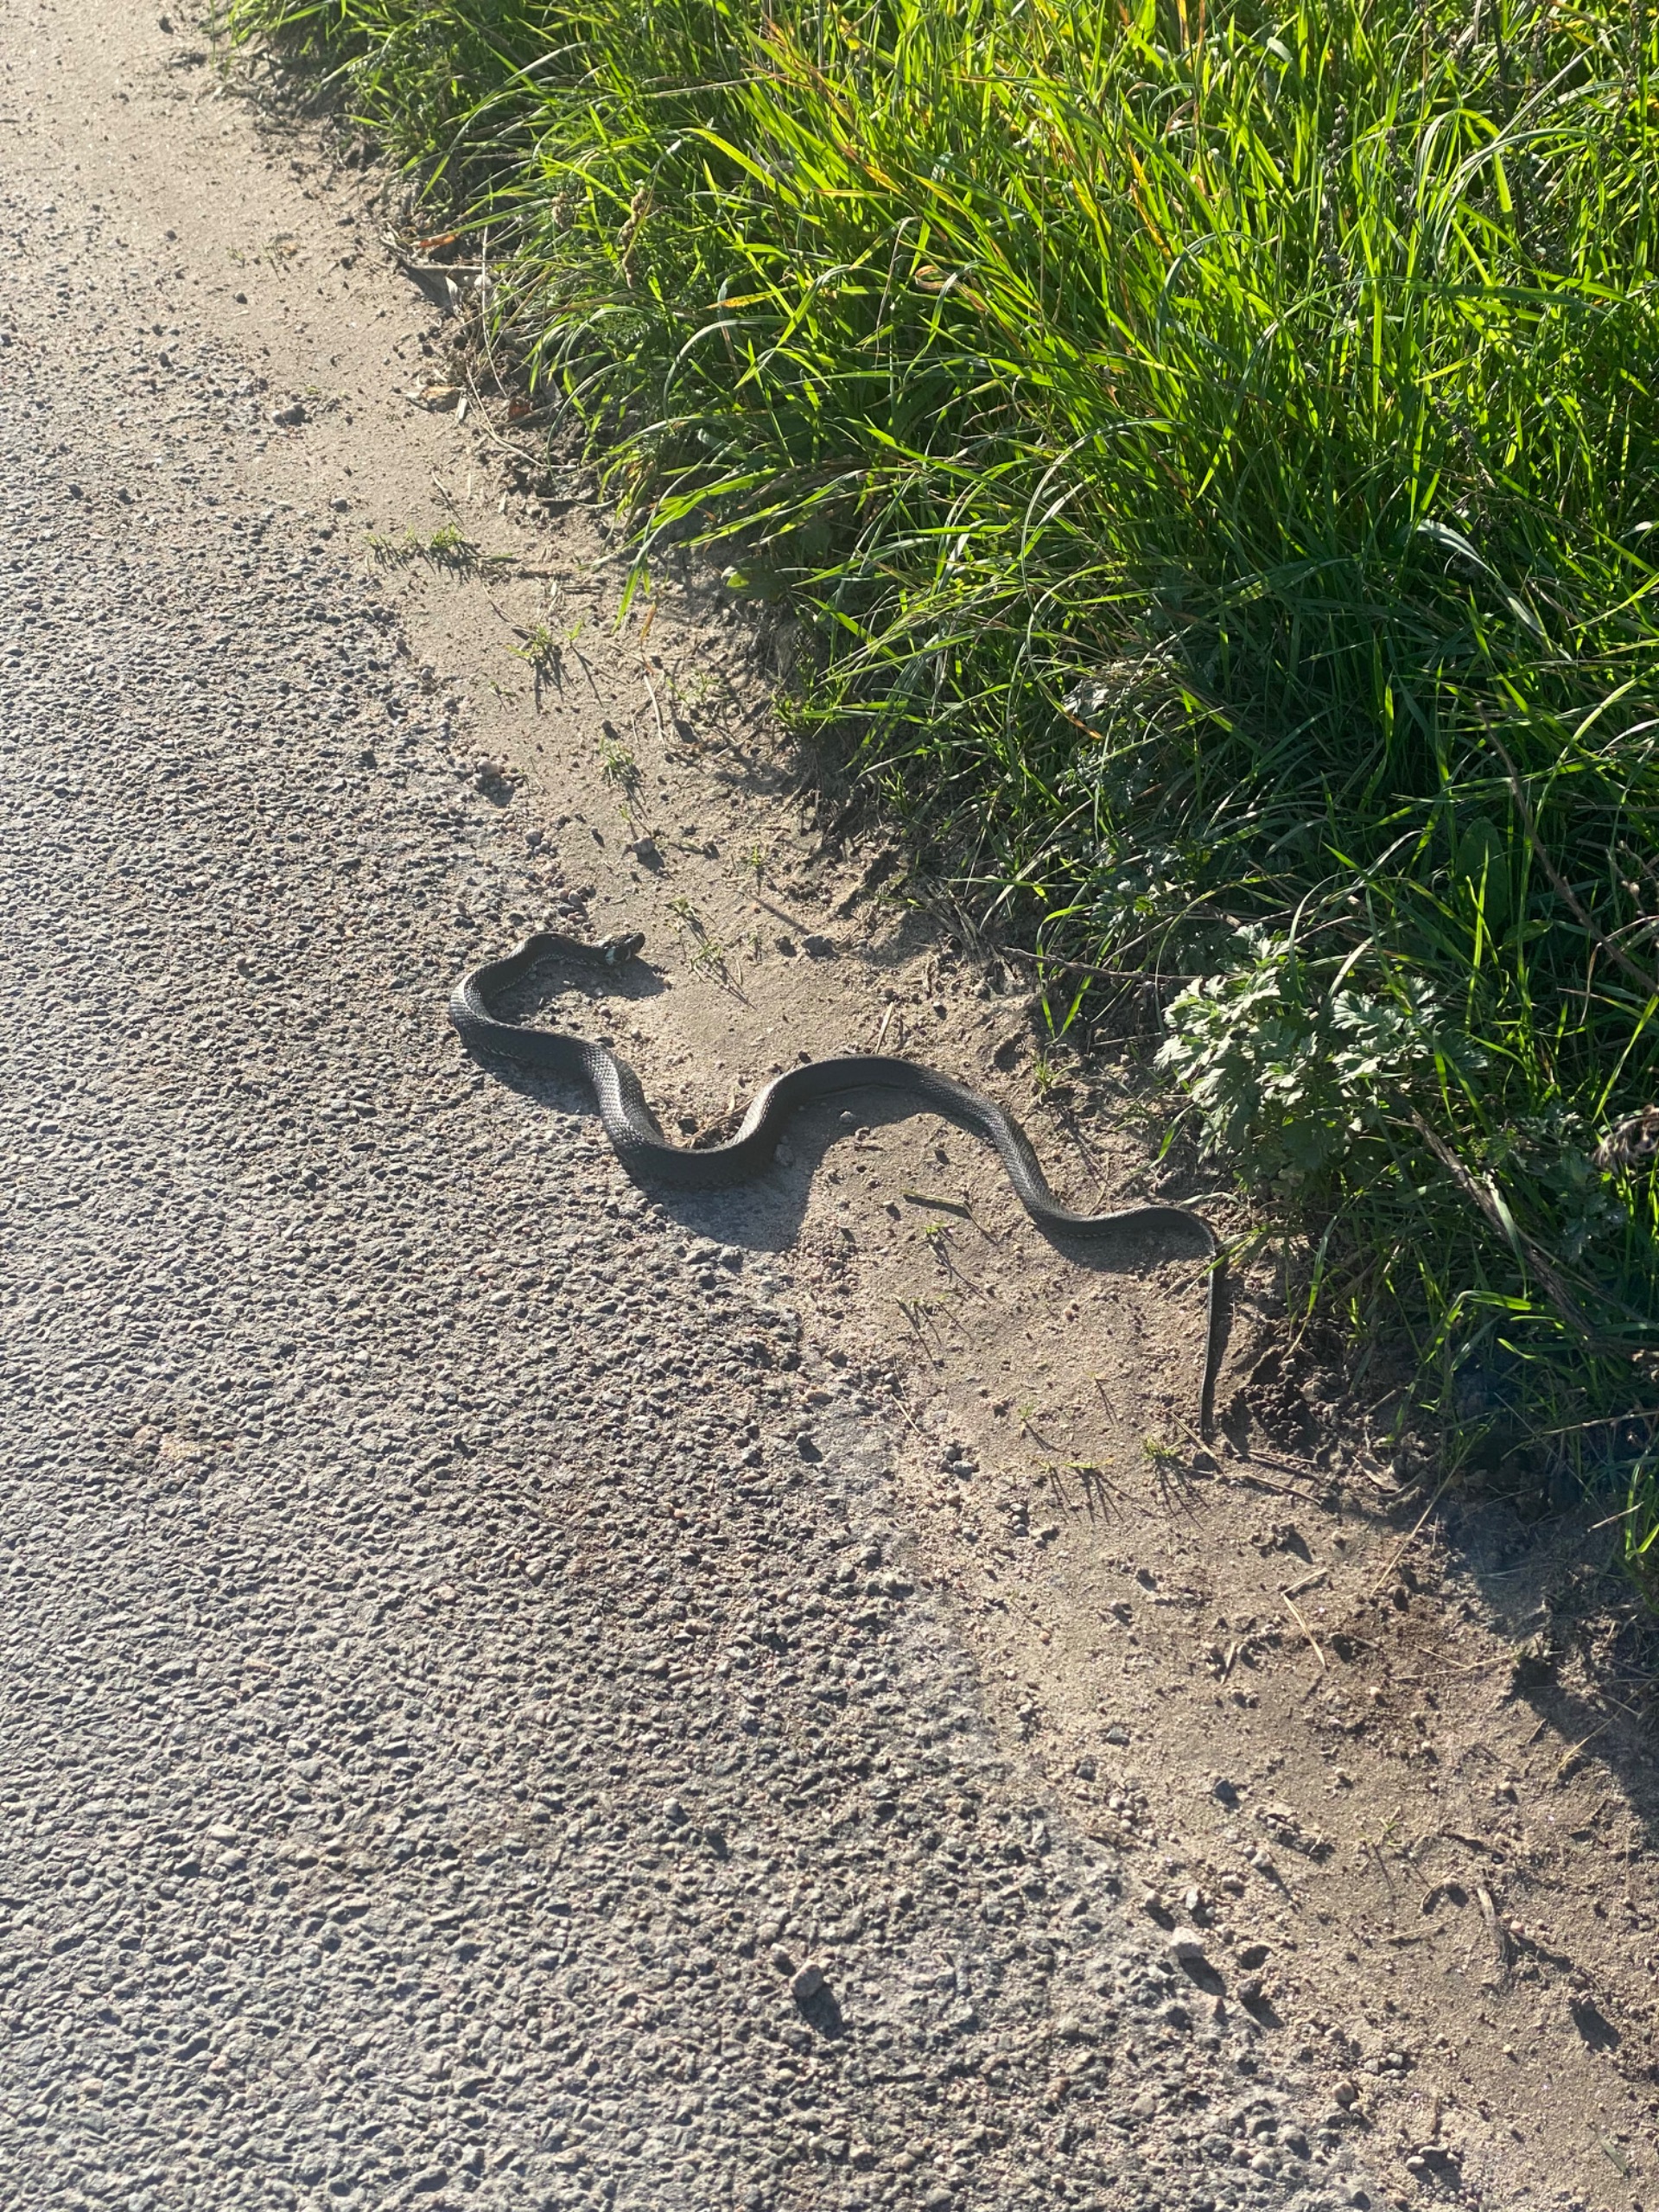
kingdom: Animalia
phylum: Chordata
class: Squamata
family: Colubridae
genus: Natrix
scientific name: Natrix natrix
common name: Snog
